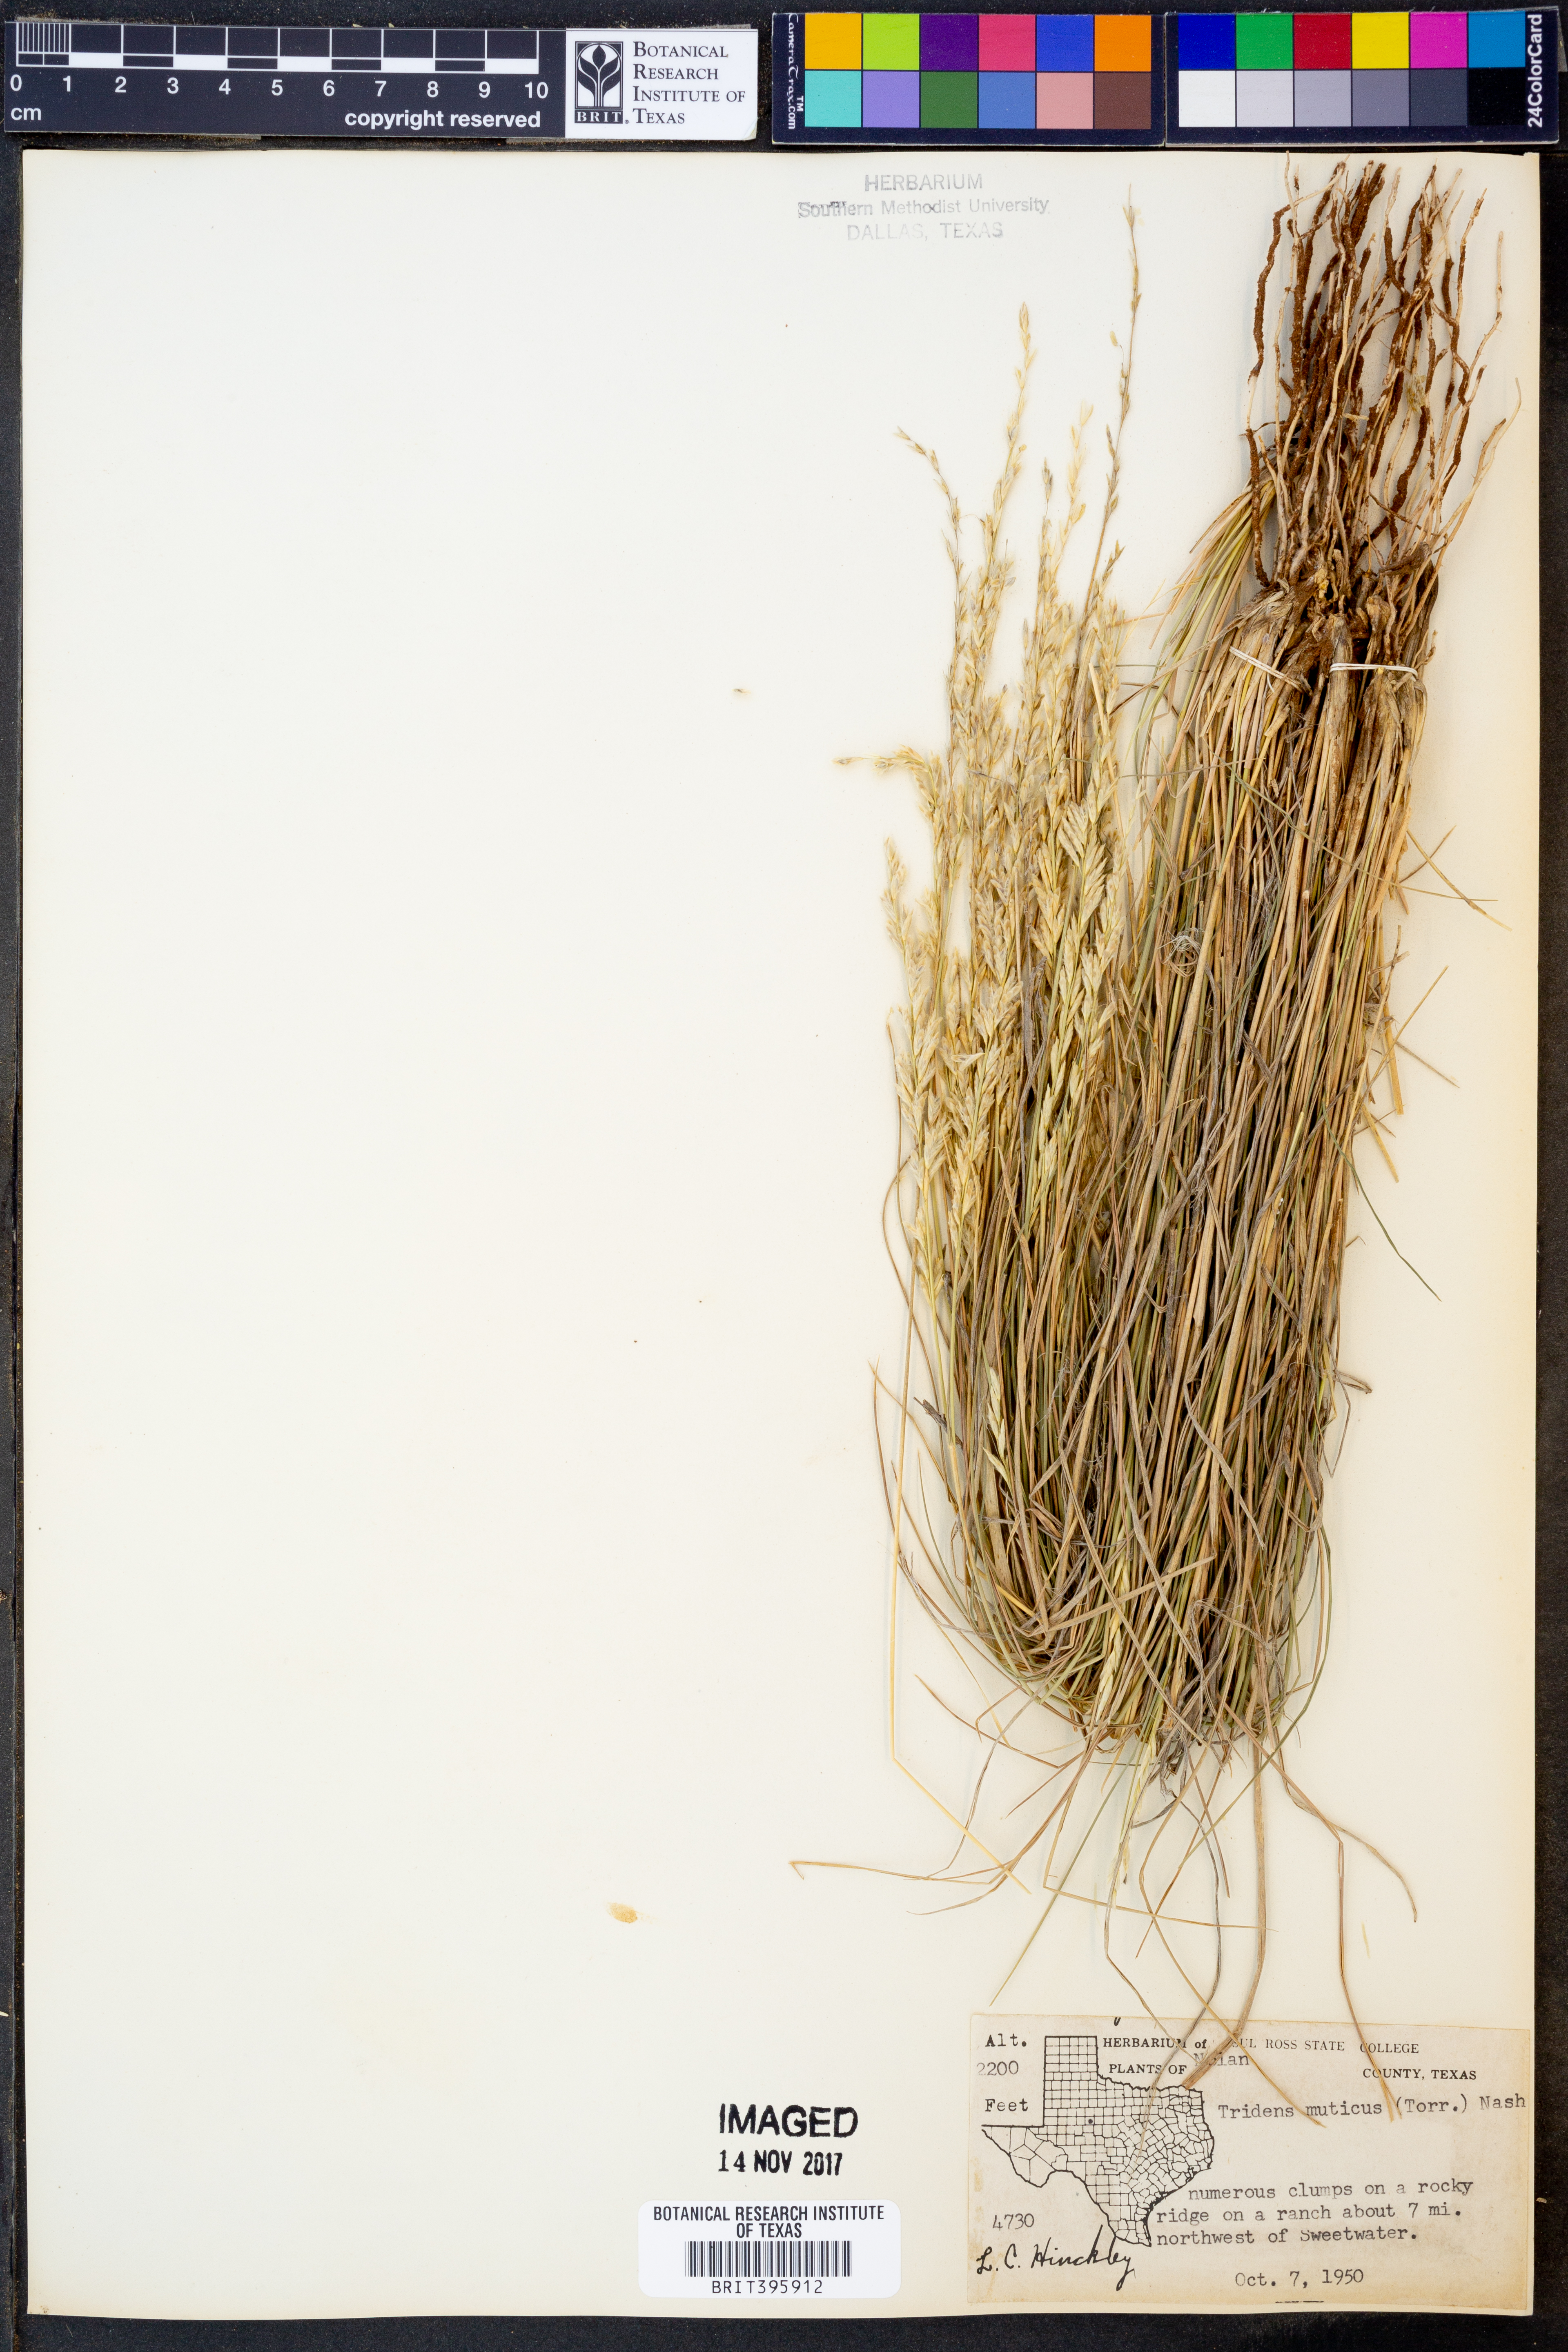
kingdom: Plantae
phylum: Tracheophyta
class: Liliopsida
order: Poales
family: Poaceae
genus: Tridentopsis
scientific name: Tridentopsis mutica
